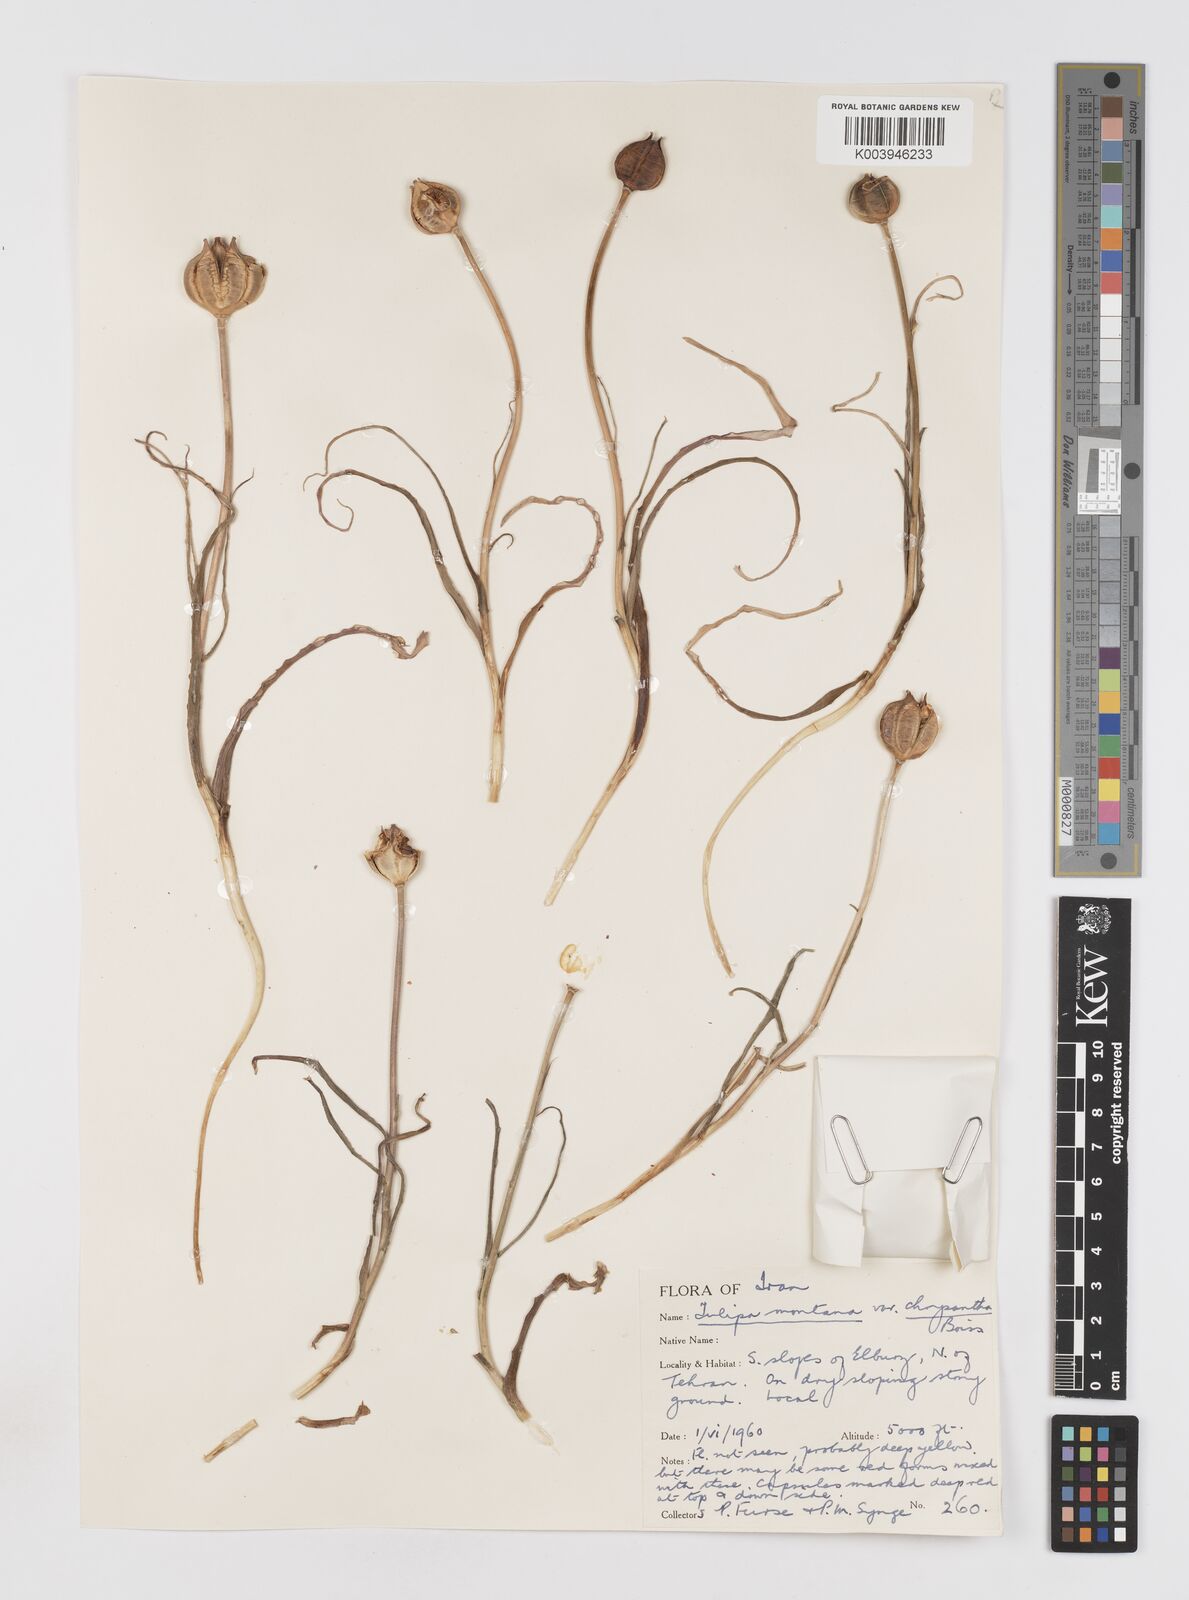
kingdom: Plantae
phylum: Tracheophyta
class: Liliopsida
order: Liliales
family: Liliaceae
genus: Tulipa
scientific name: Tulipa montana
